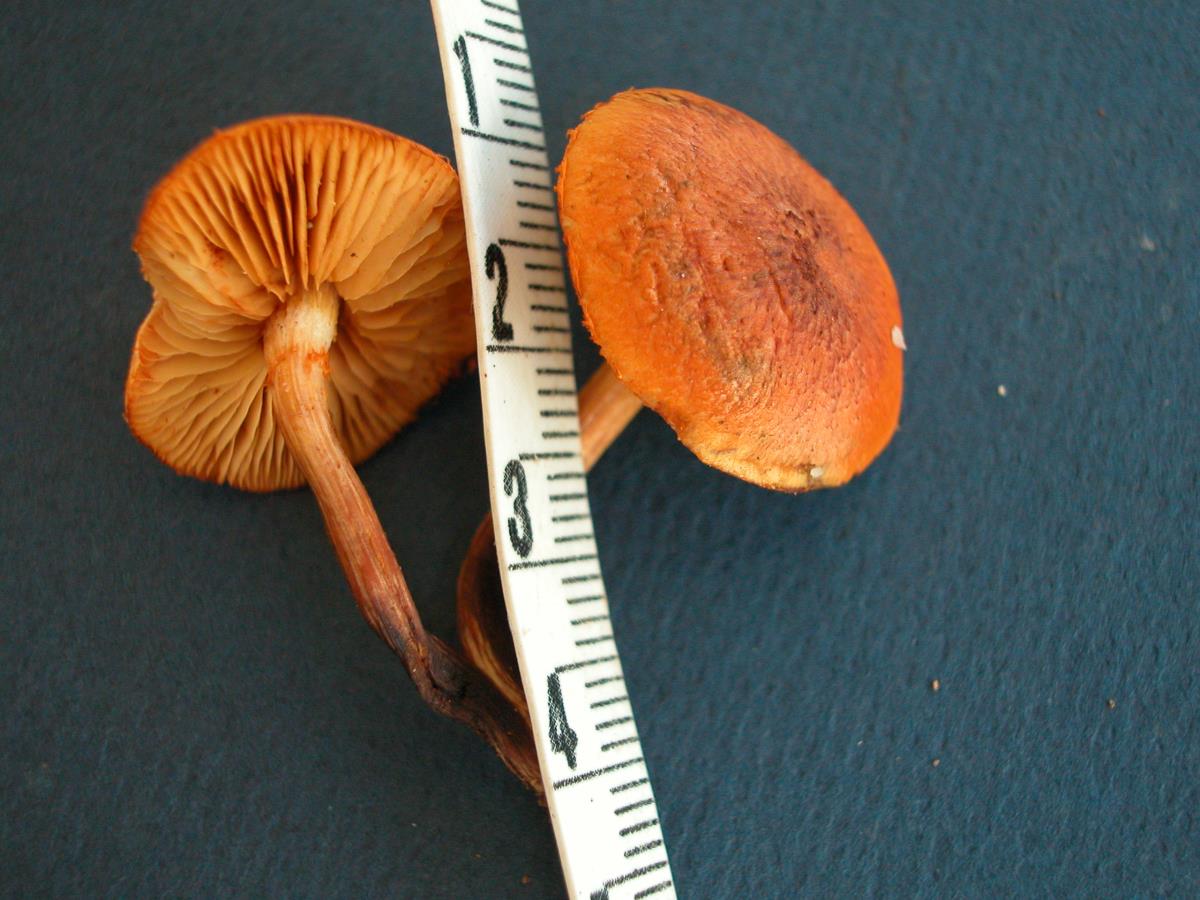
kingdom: Fungi
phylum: Basidiomycota
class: Agaricomycetes
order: Agaricales
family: Marasmiaceae
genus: Marasmius
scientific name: Marasmius
